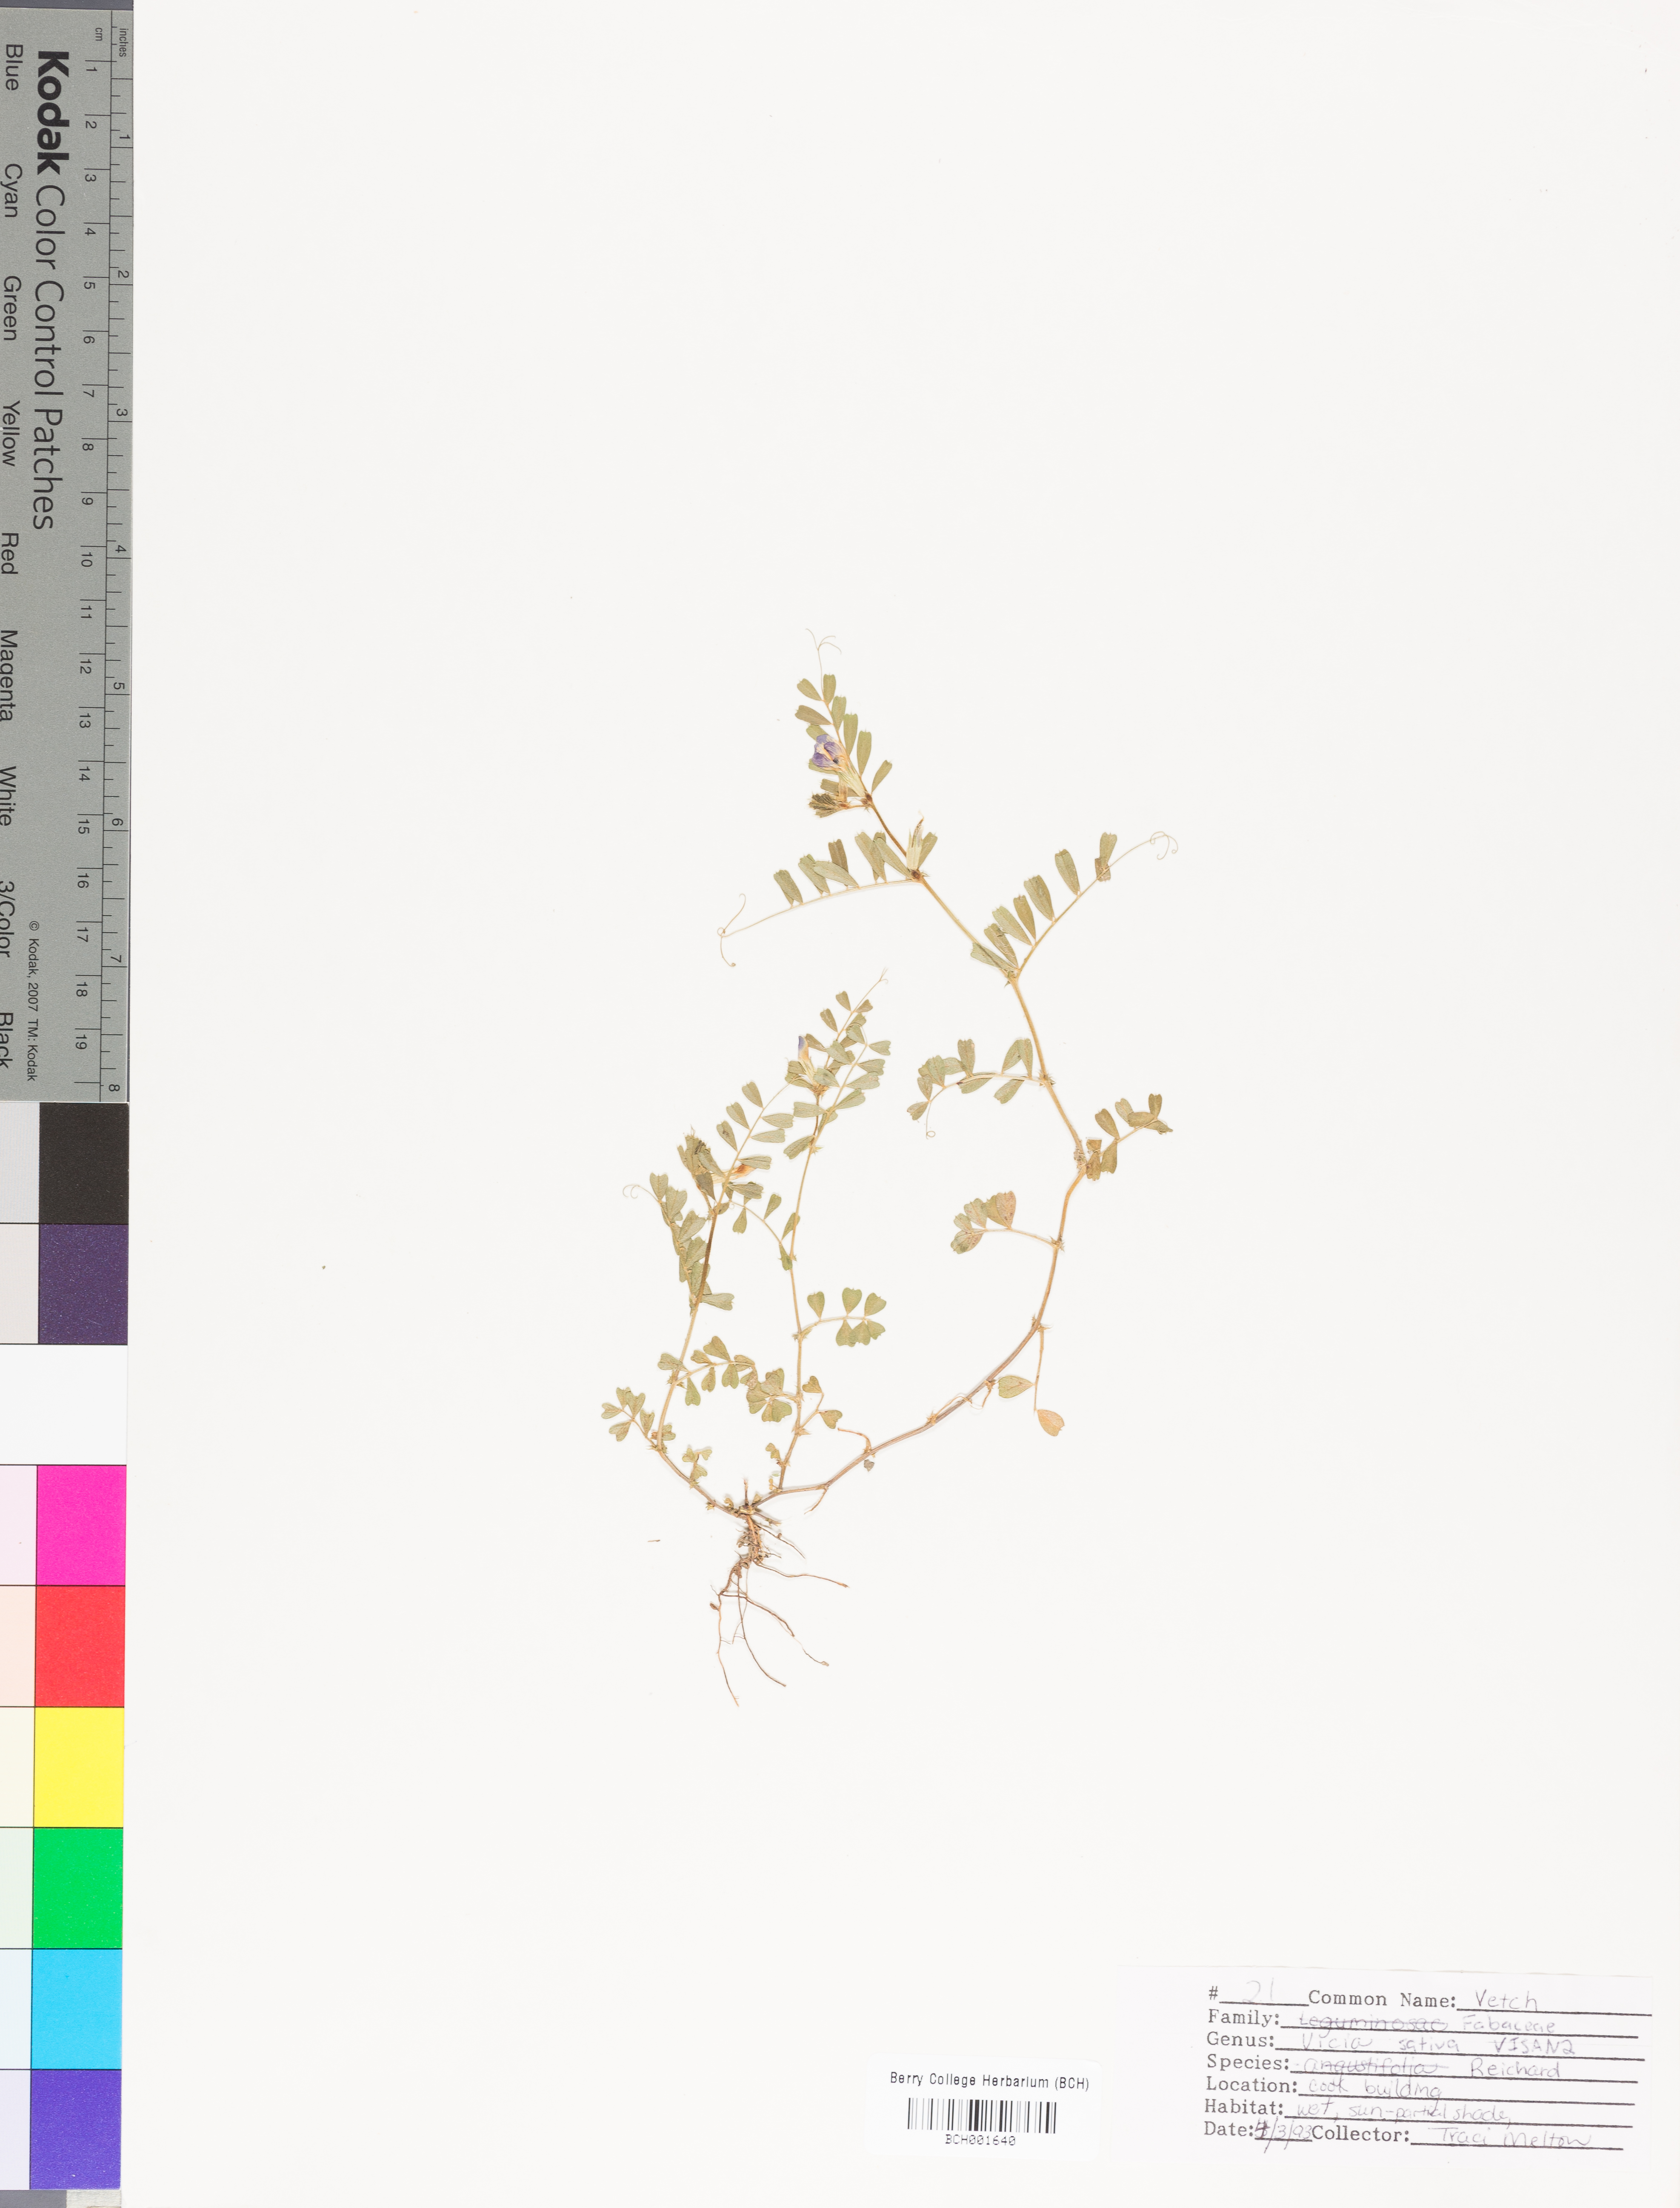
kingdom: Plantae
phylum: Tracheophyta
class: Magnoliopsida
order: Fabales
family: Fabaceae
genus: Vicia
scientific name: Vicia sativa
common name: Garden vetch
